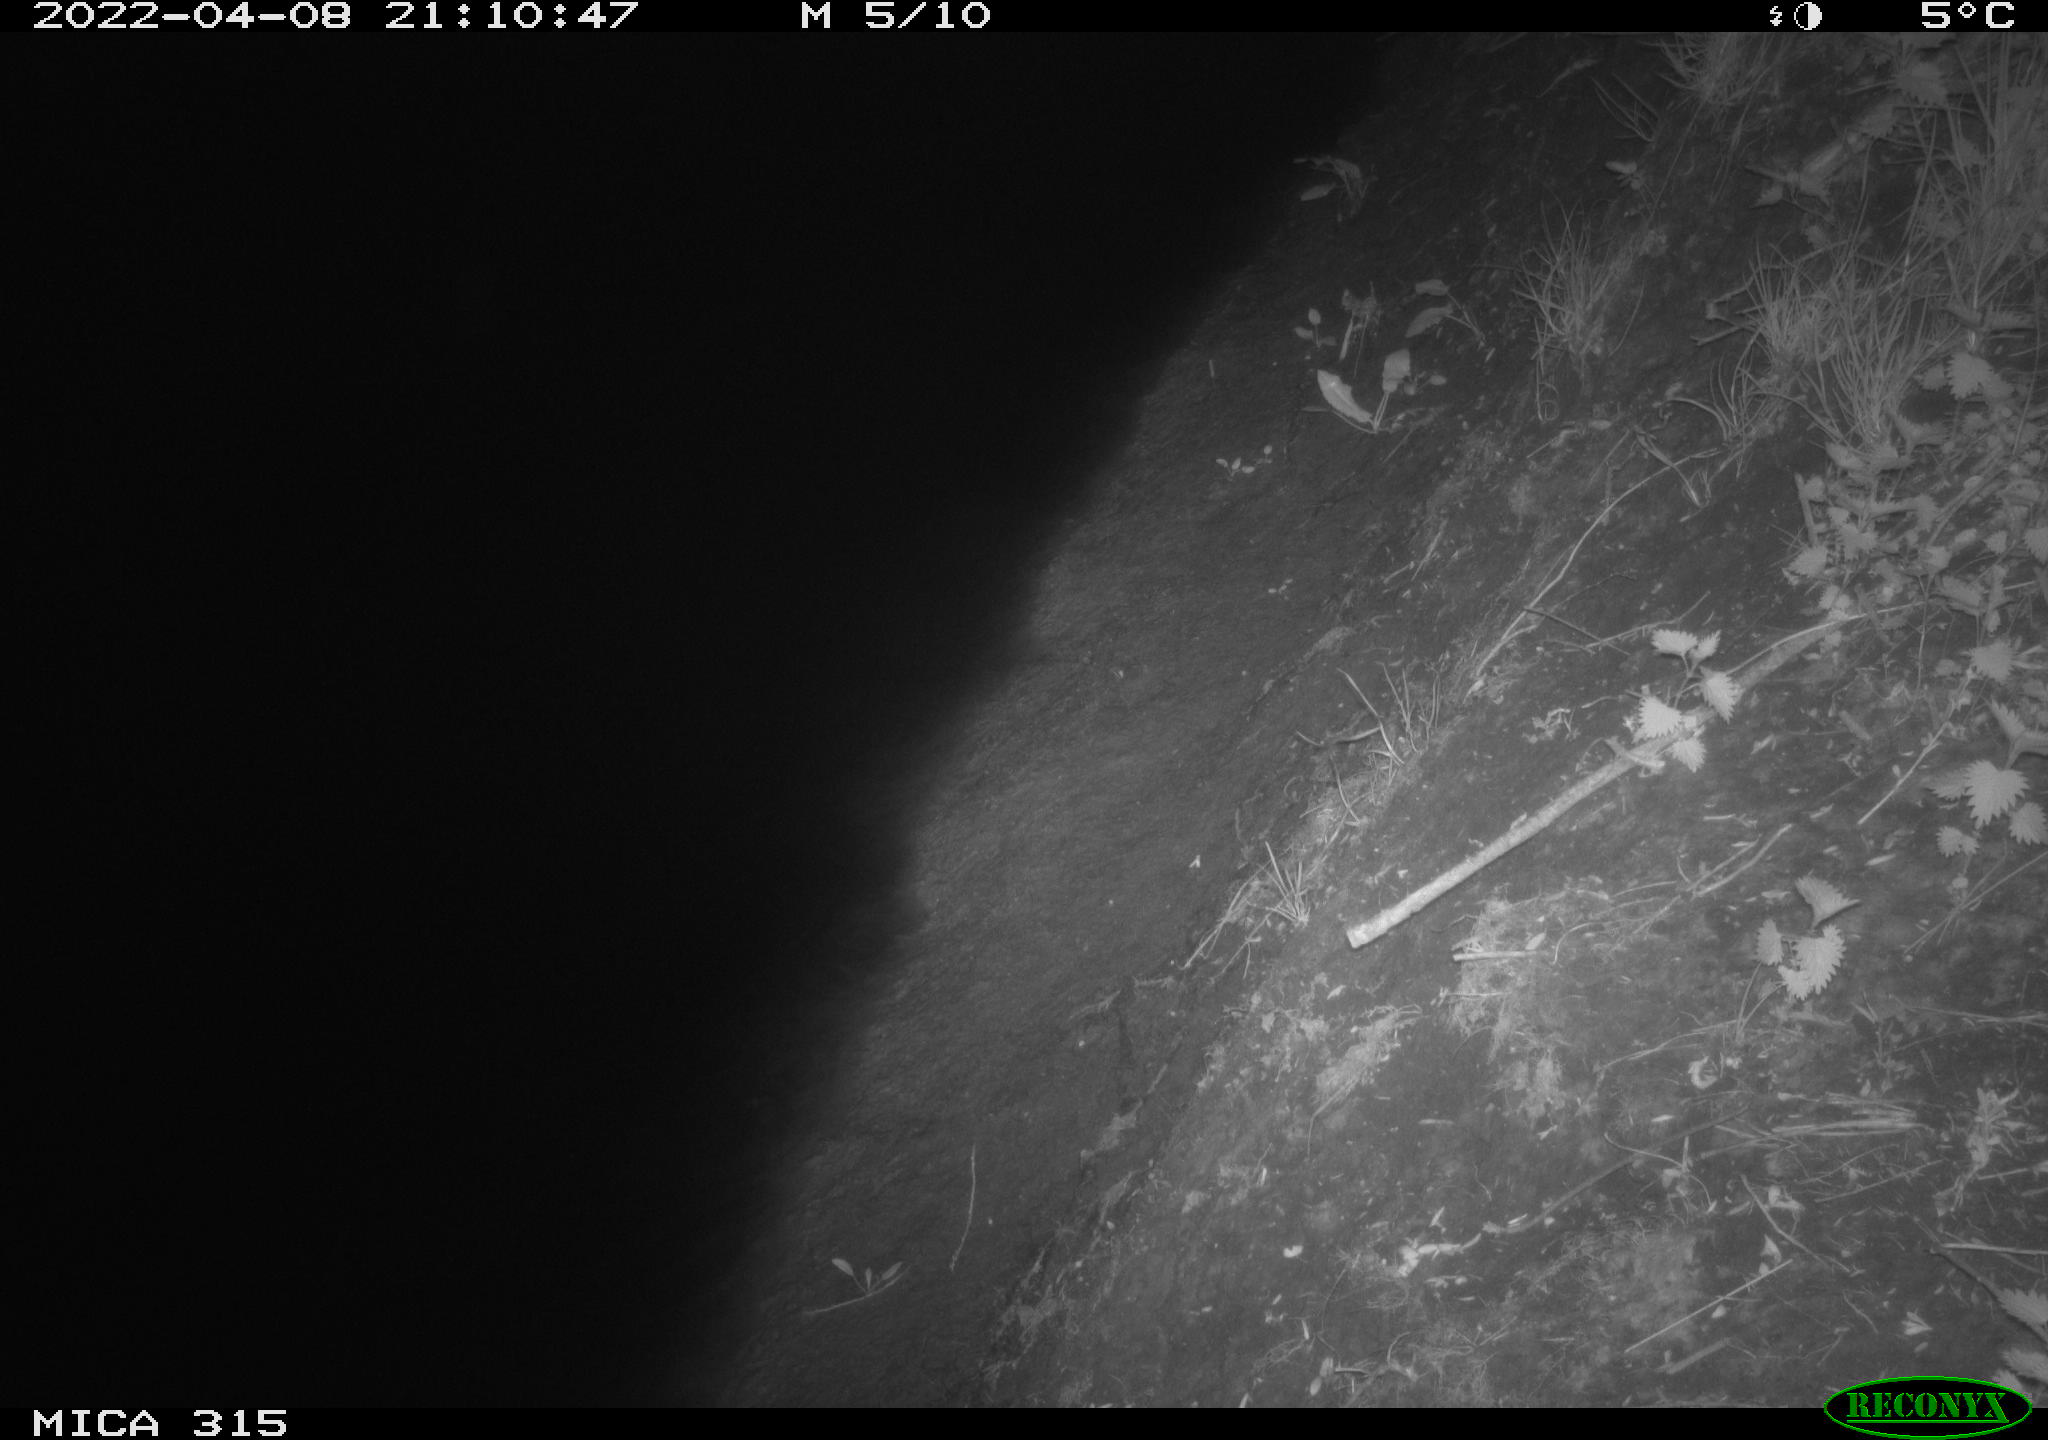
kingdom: Animalia
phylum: Chordata
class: Aves
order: Anseriformes
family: Anatidae
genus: Anas
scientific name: Anas platyrhynchos
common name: Mallard
